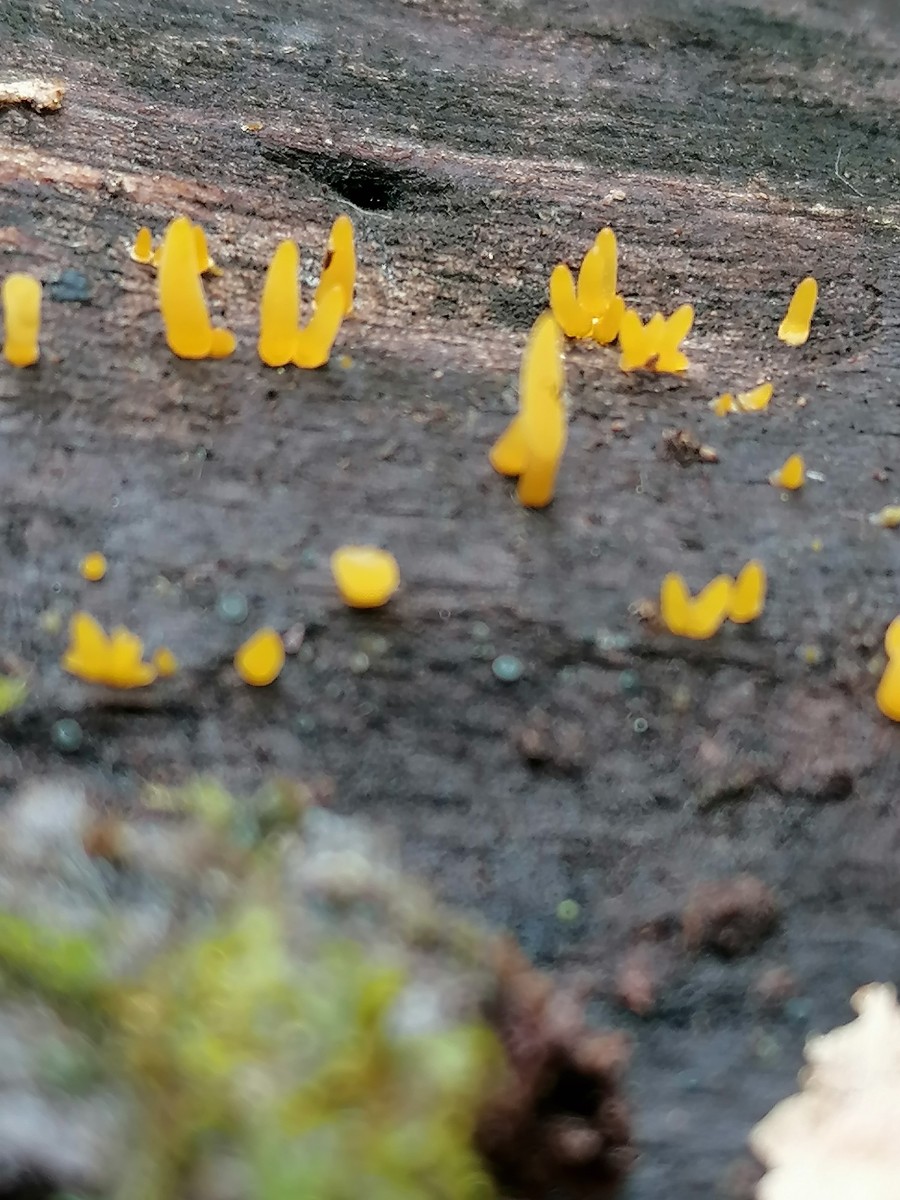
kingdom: Fungi
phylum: Basidiomycota
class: Dacrymycetes
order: Dacrymycetales
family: Dacrymycetaceae
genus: Calocera
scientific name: Calocera cornea
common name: liden guldgaffel
